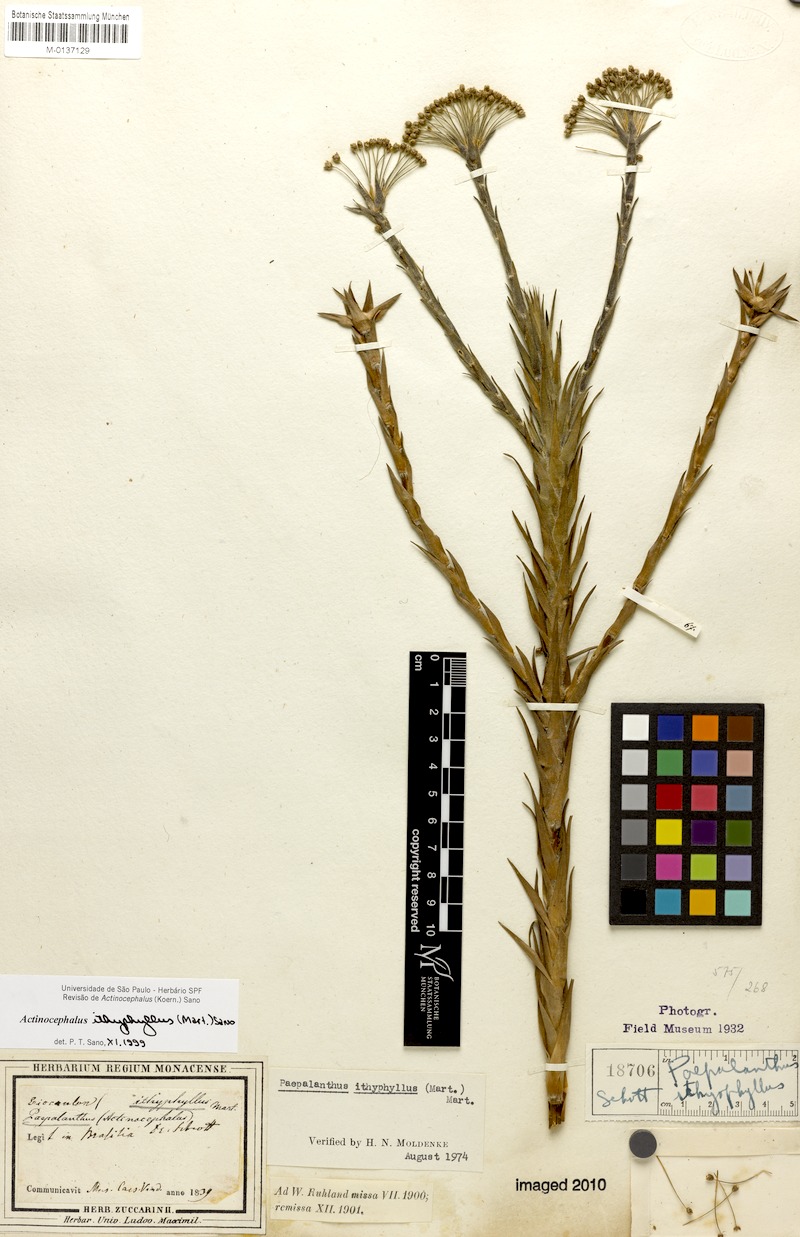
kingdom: Plantae
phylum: Tracheophyta
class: Liliopsida
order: Poales
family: Eriocaulaceae
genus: Paepalanthus
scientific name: Paepalanthus ithyphyllus
